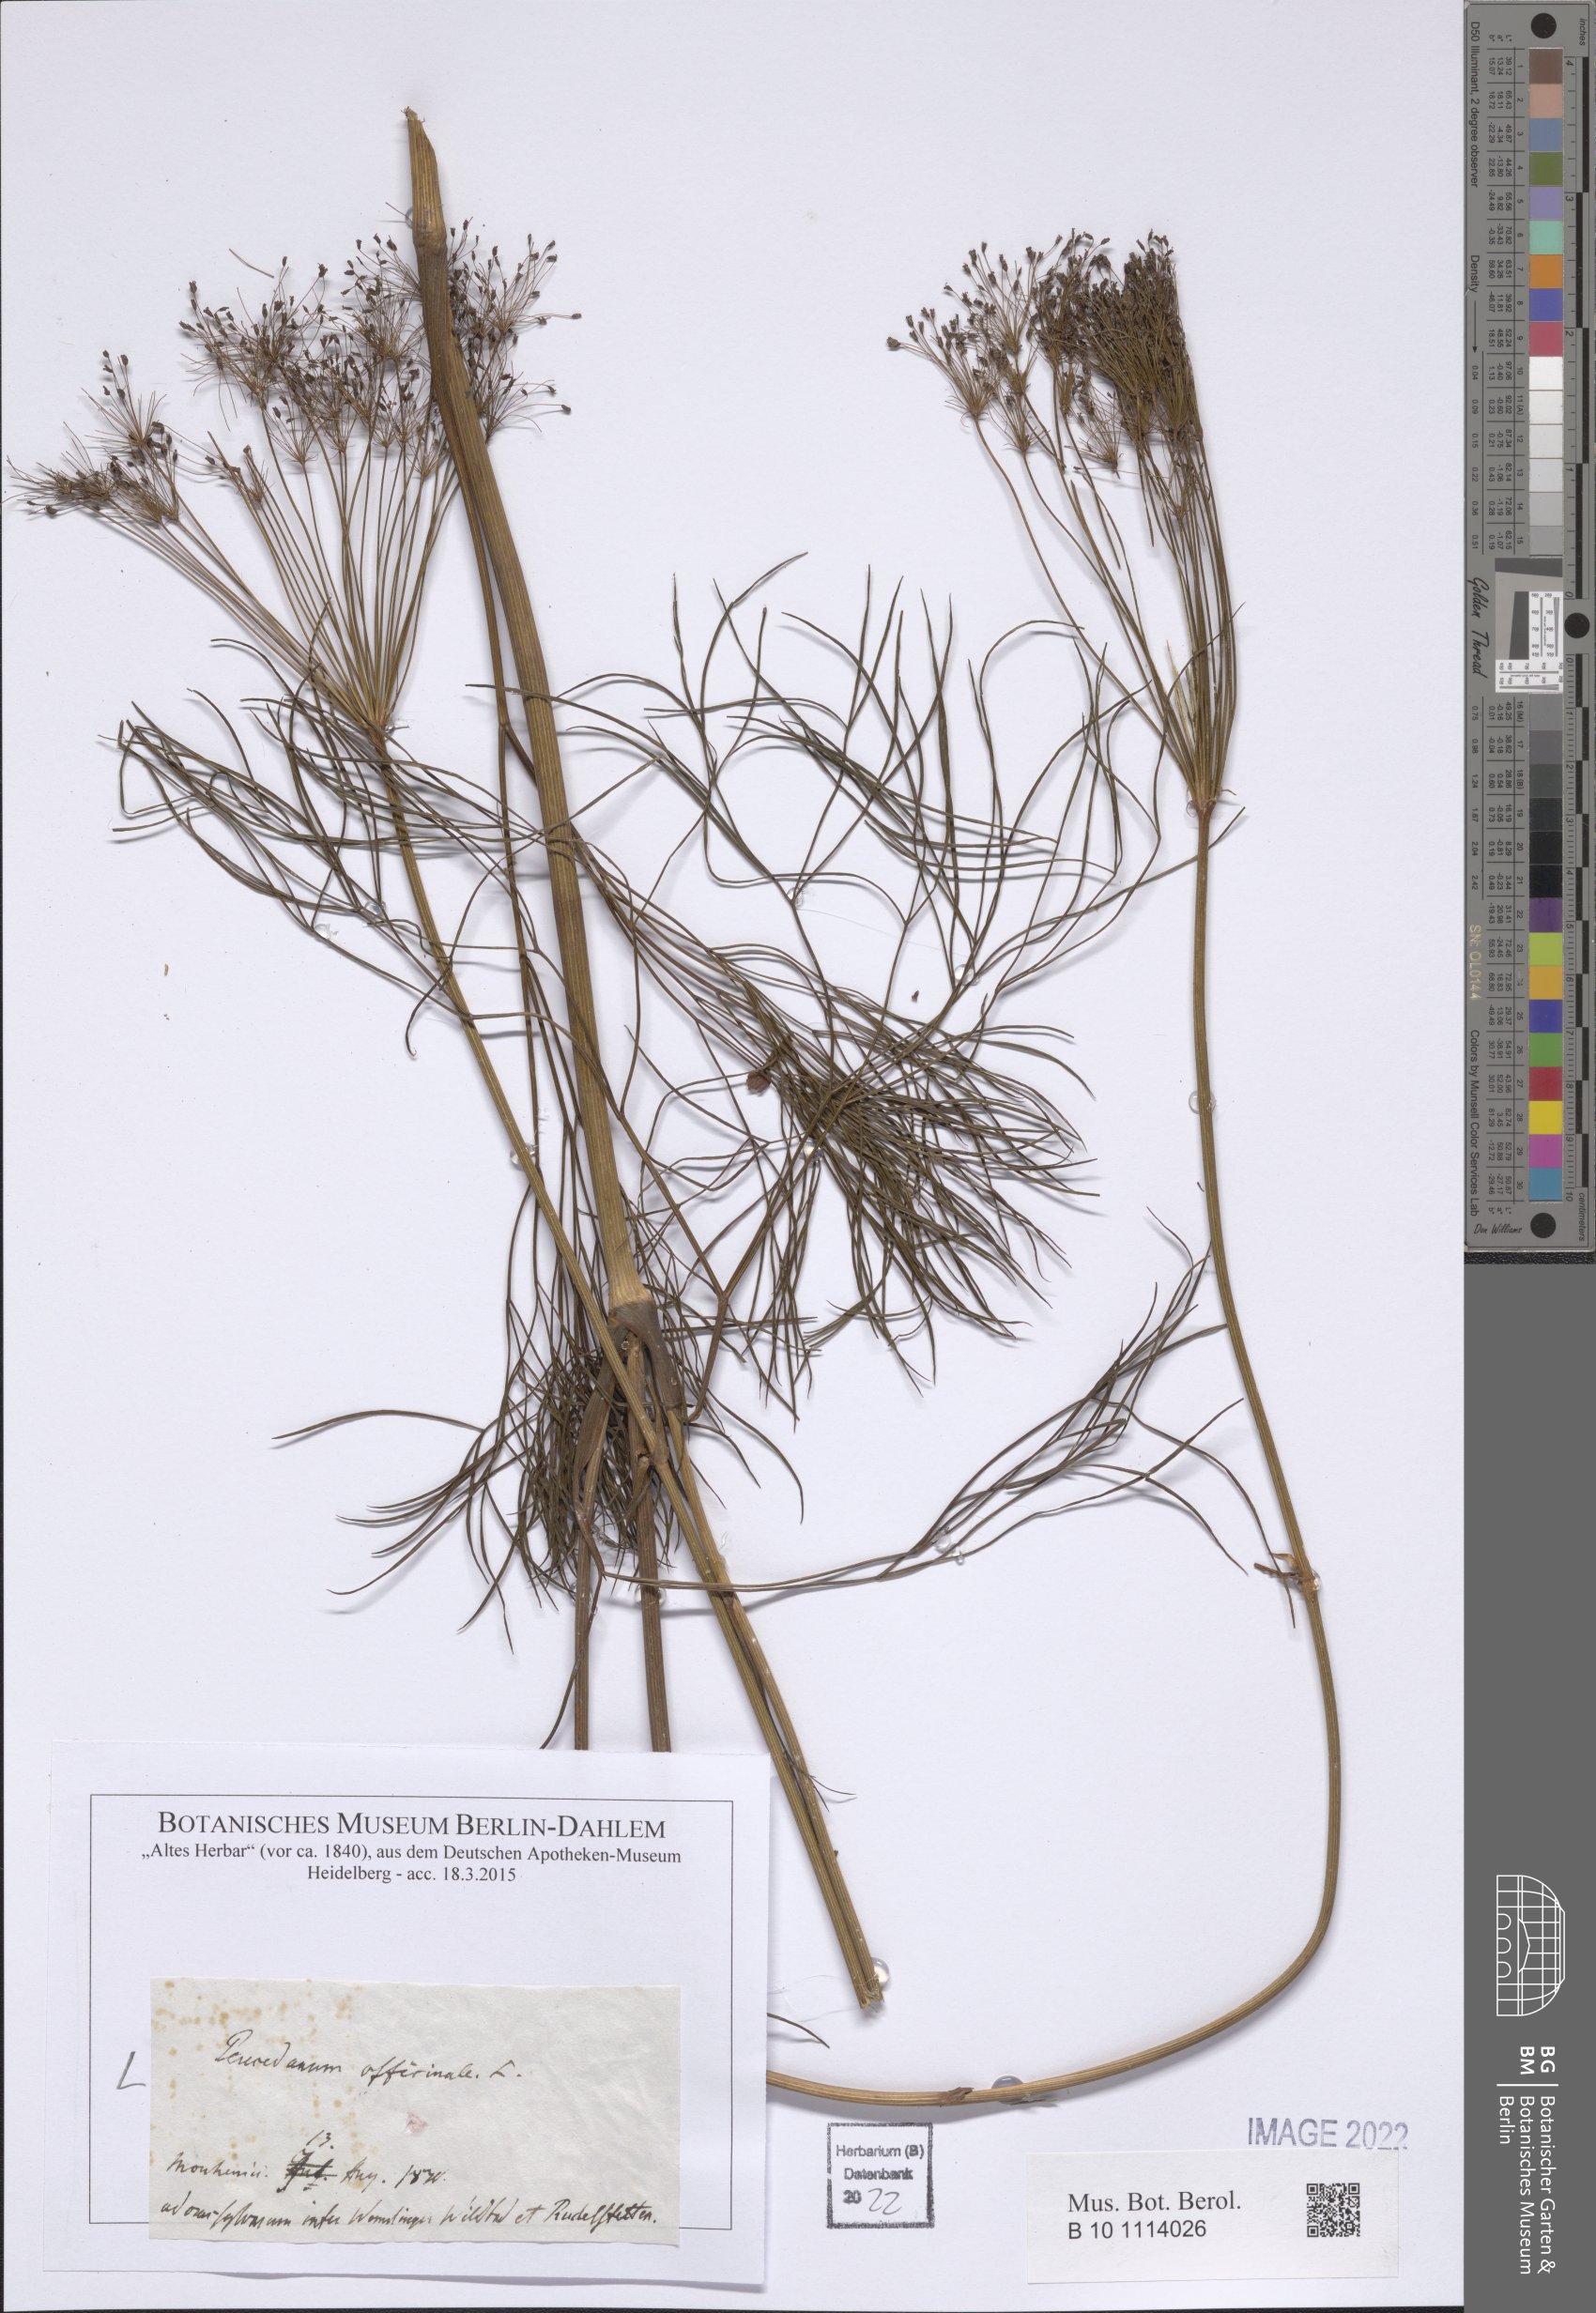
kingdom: Plantae
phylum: Tracheophyta
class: Magnoliopsida
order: Apiales
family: Apiaceae
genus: Peucedanum
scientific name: Peucedanum officinale
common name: Sulphurweed
